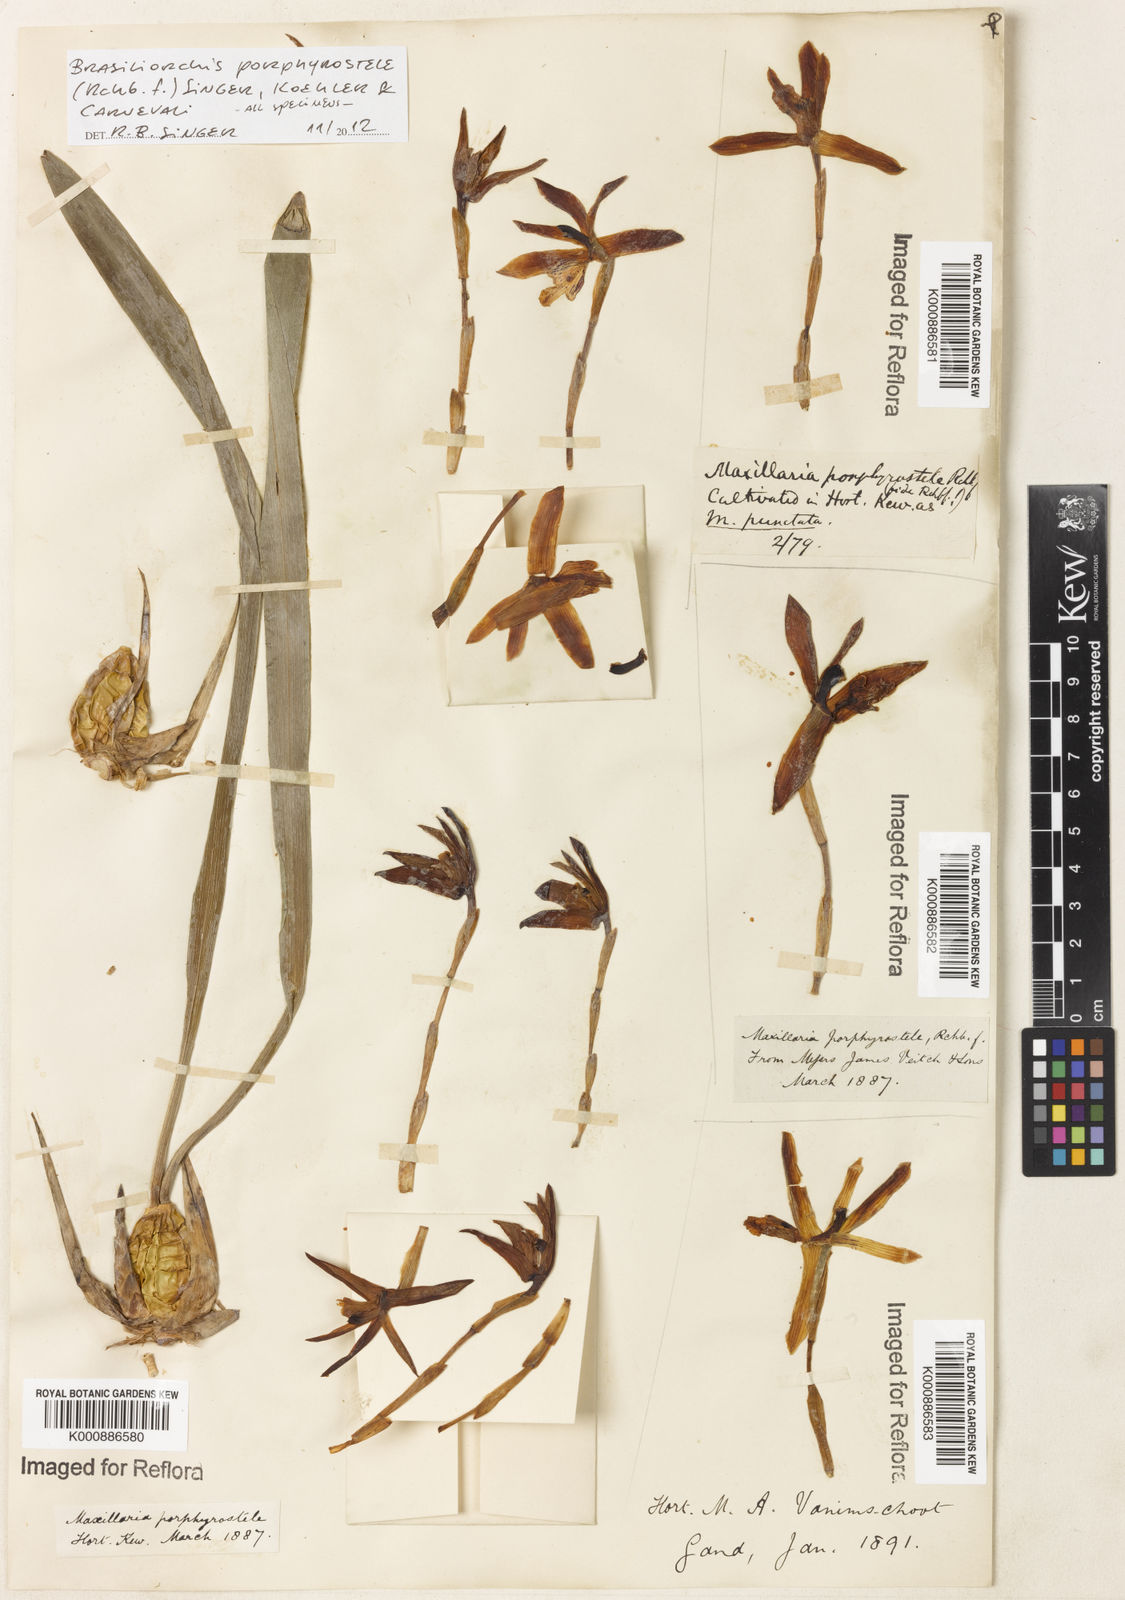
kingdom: Plantae
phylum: Tracheophyta
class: Liliopsida
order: Asparagales
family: Orchidaceae
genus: Maxillaria
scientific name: Maxillaria porphyrostele
